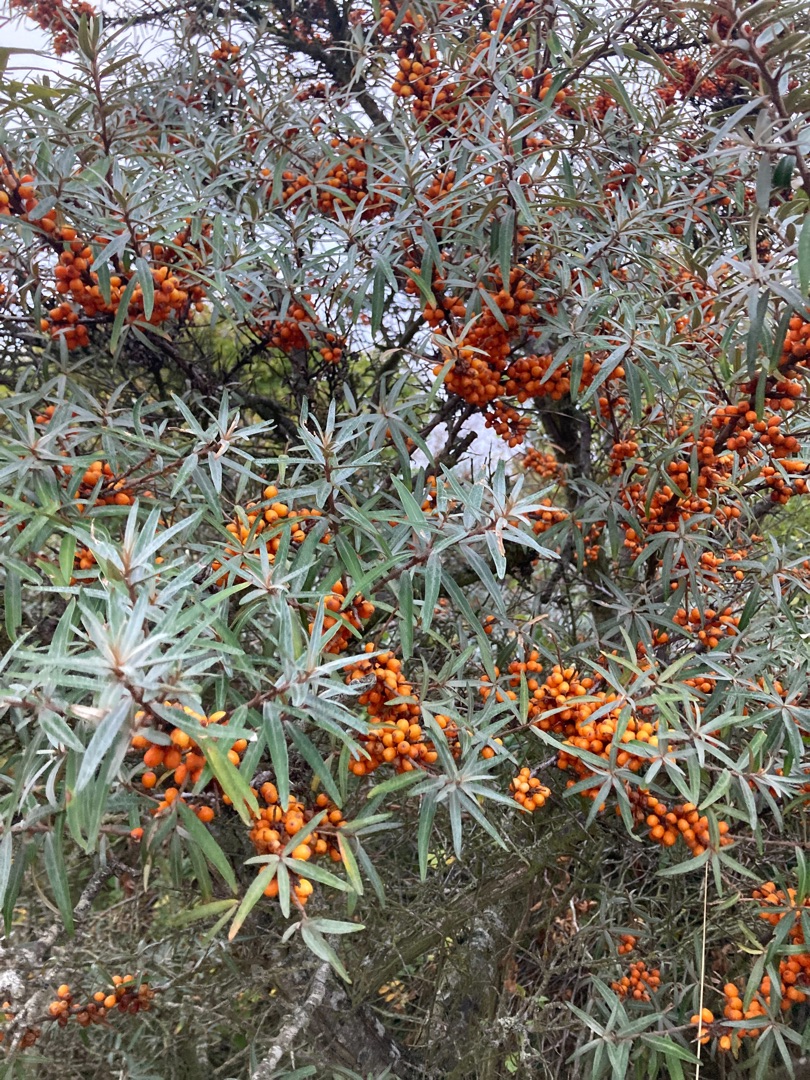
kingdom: Plantae
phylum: Tracheophyta
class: Magnoliopsida
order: Rosales
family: Elaeagnaceae
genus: Hippophae
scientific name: Hippophae rhamnoides
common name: Havtorn
